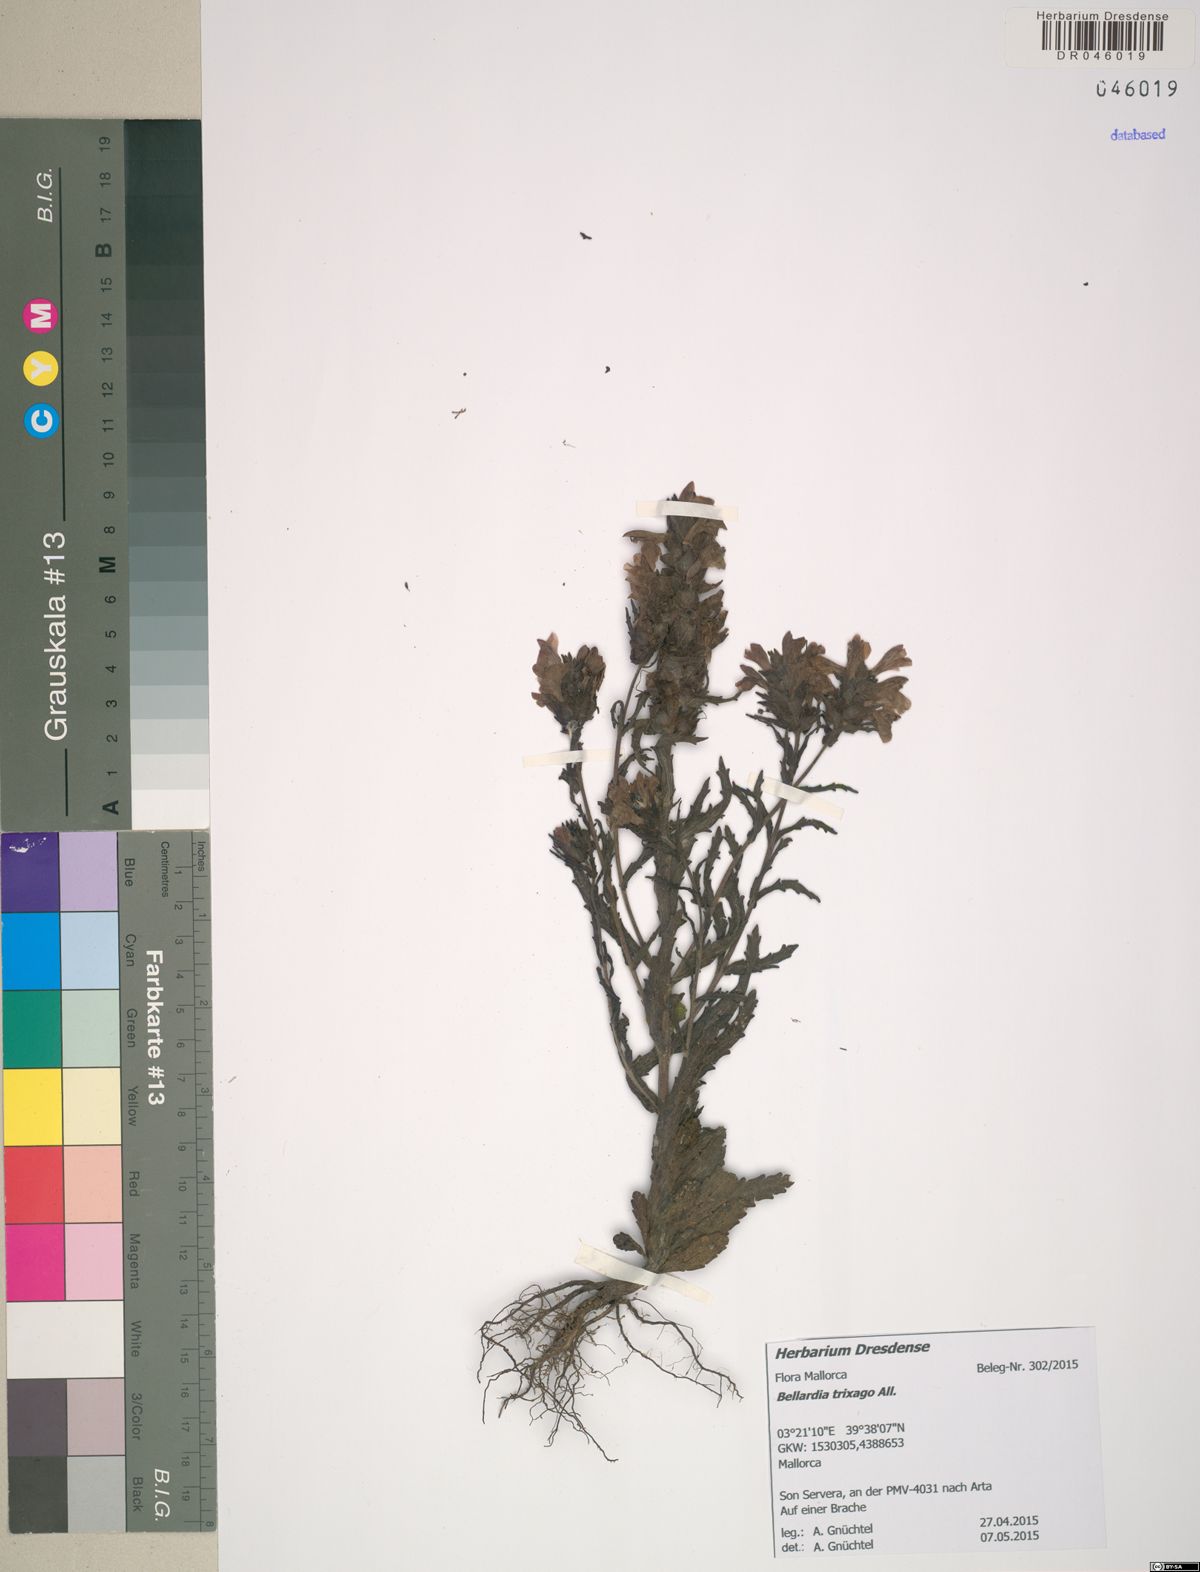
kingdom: Plantae
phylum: Tracheophyta
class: Magnoliopsida
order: Lamiales
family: Orobanchaceae
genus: Bellardia
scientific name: Bellardia trixago
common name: Mediterranean lineseed
